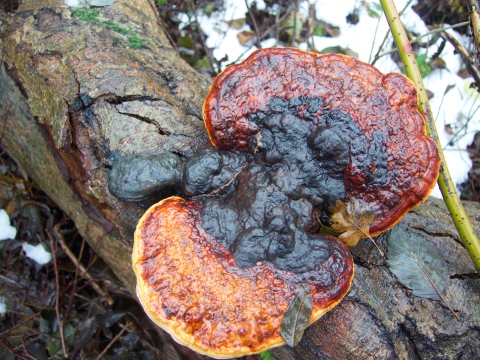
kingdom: Fungi
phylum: Basidiomycota
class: Agaricomycetes
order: Polyporales
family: Fomitopsidaceae
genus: Fomitopsis
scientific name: Fomitopsis pinicola
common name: randbæltet hovporesvamp
